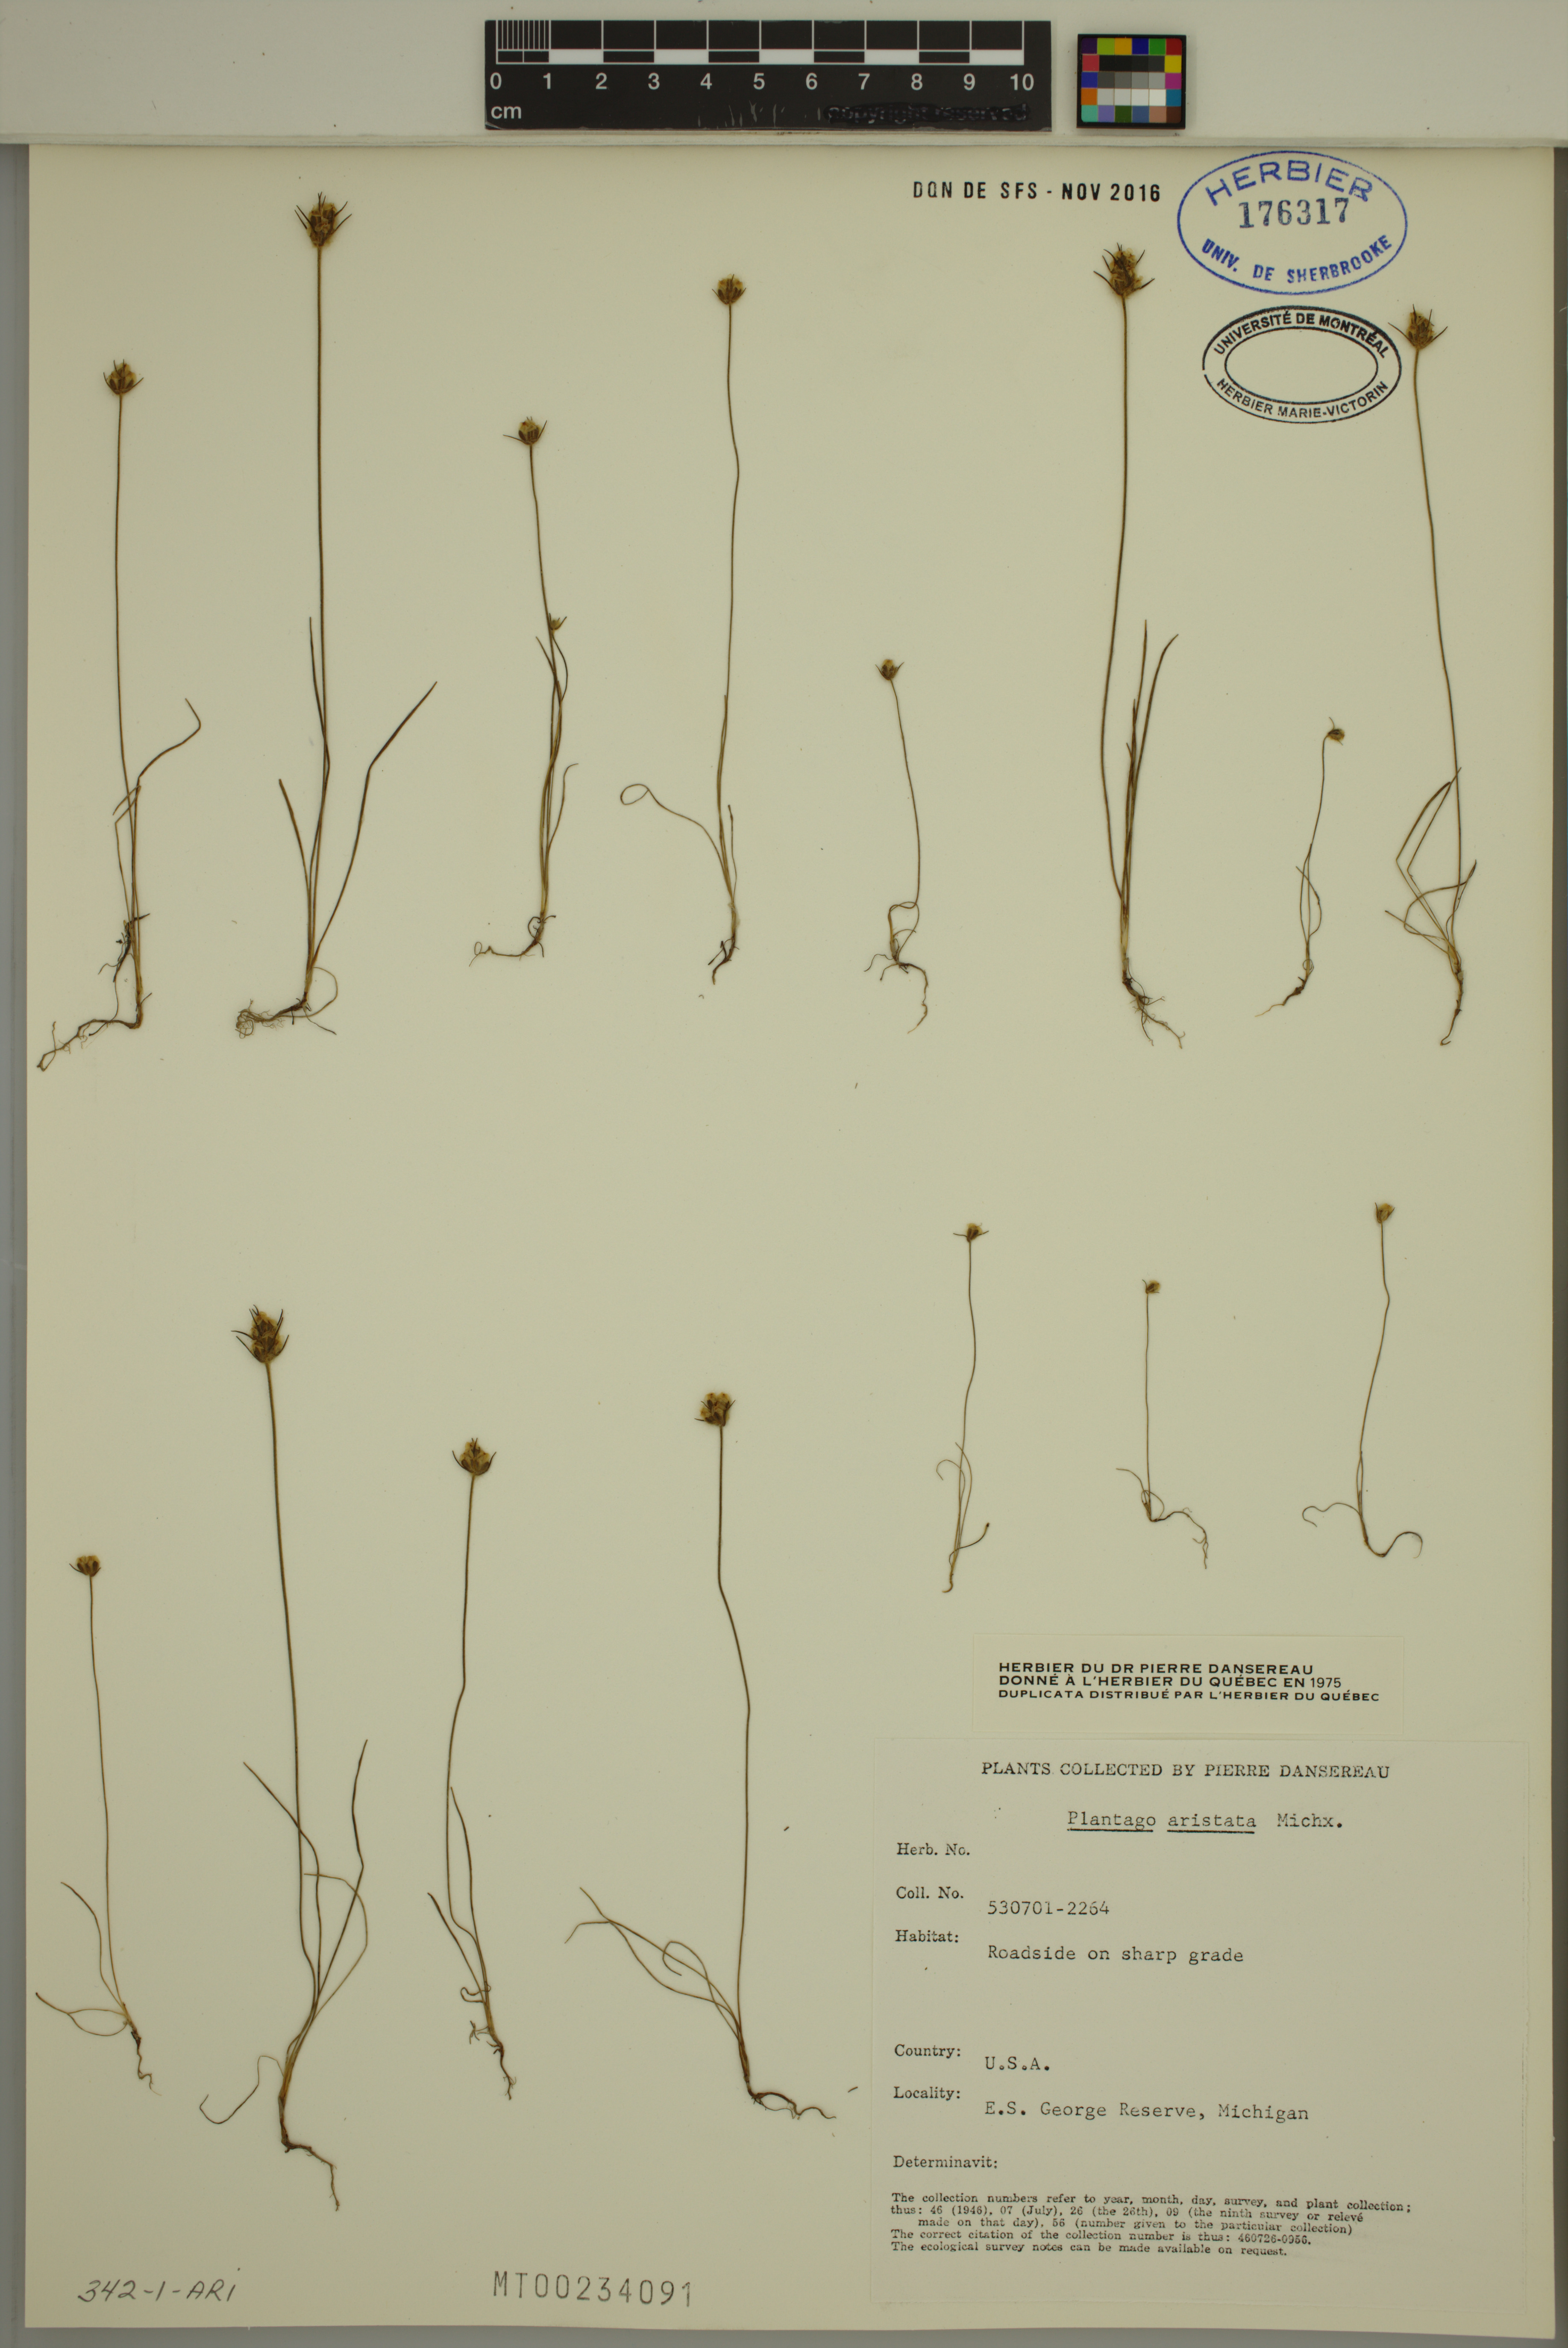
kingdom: Plantae
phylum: Tracheophyta
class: Magnoliopsida
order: Lamiales
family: Plantaginaceae
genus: Plantago
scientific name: Plantago aristata
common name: Bracted plantain
